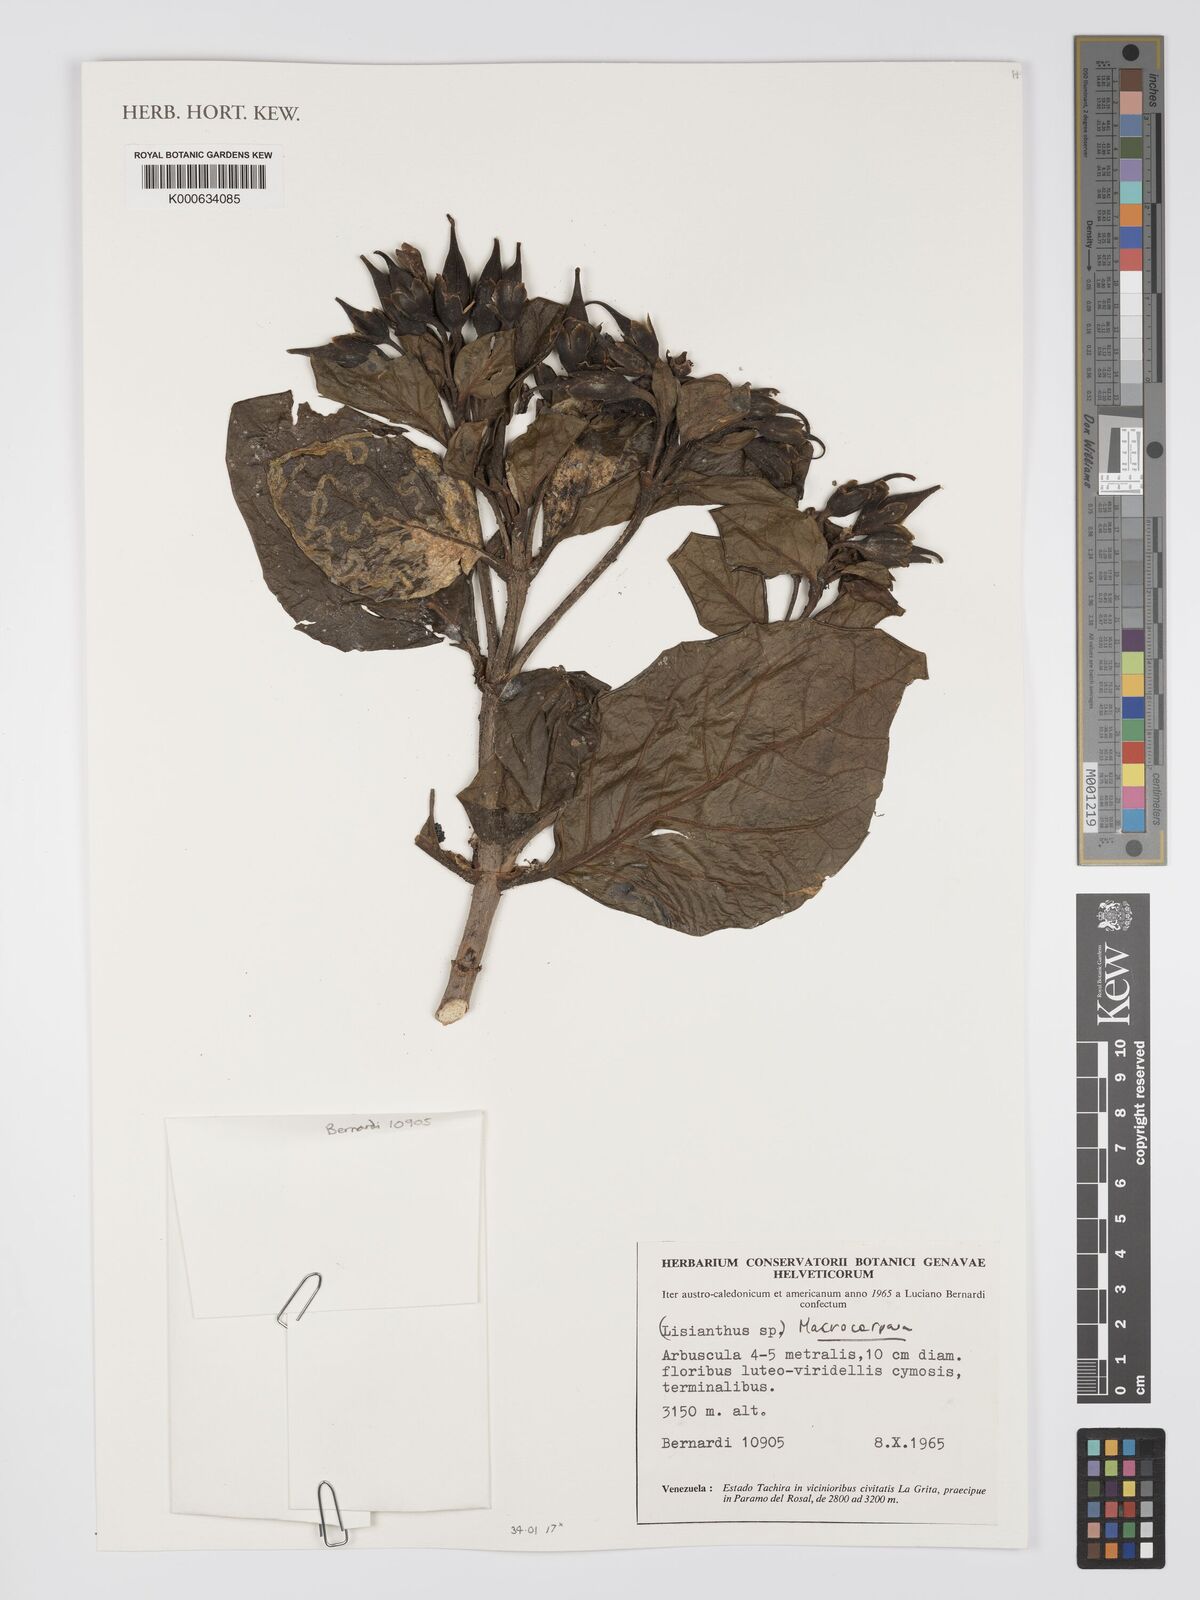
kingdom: Plantae
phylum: Tracheophyta
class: Magnoliopsida
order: Gentianales
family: Gentianaceae
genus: Macrocarpaea
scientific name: Macrocarpaea
